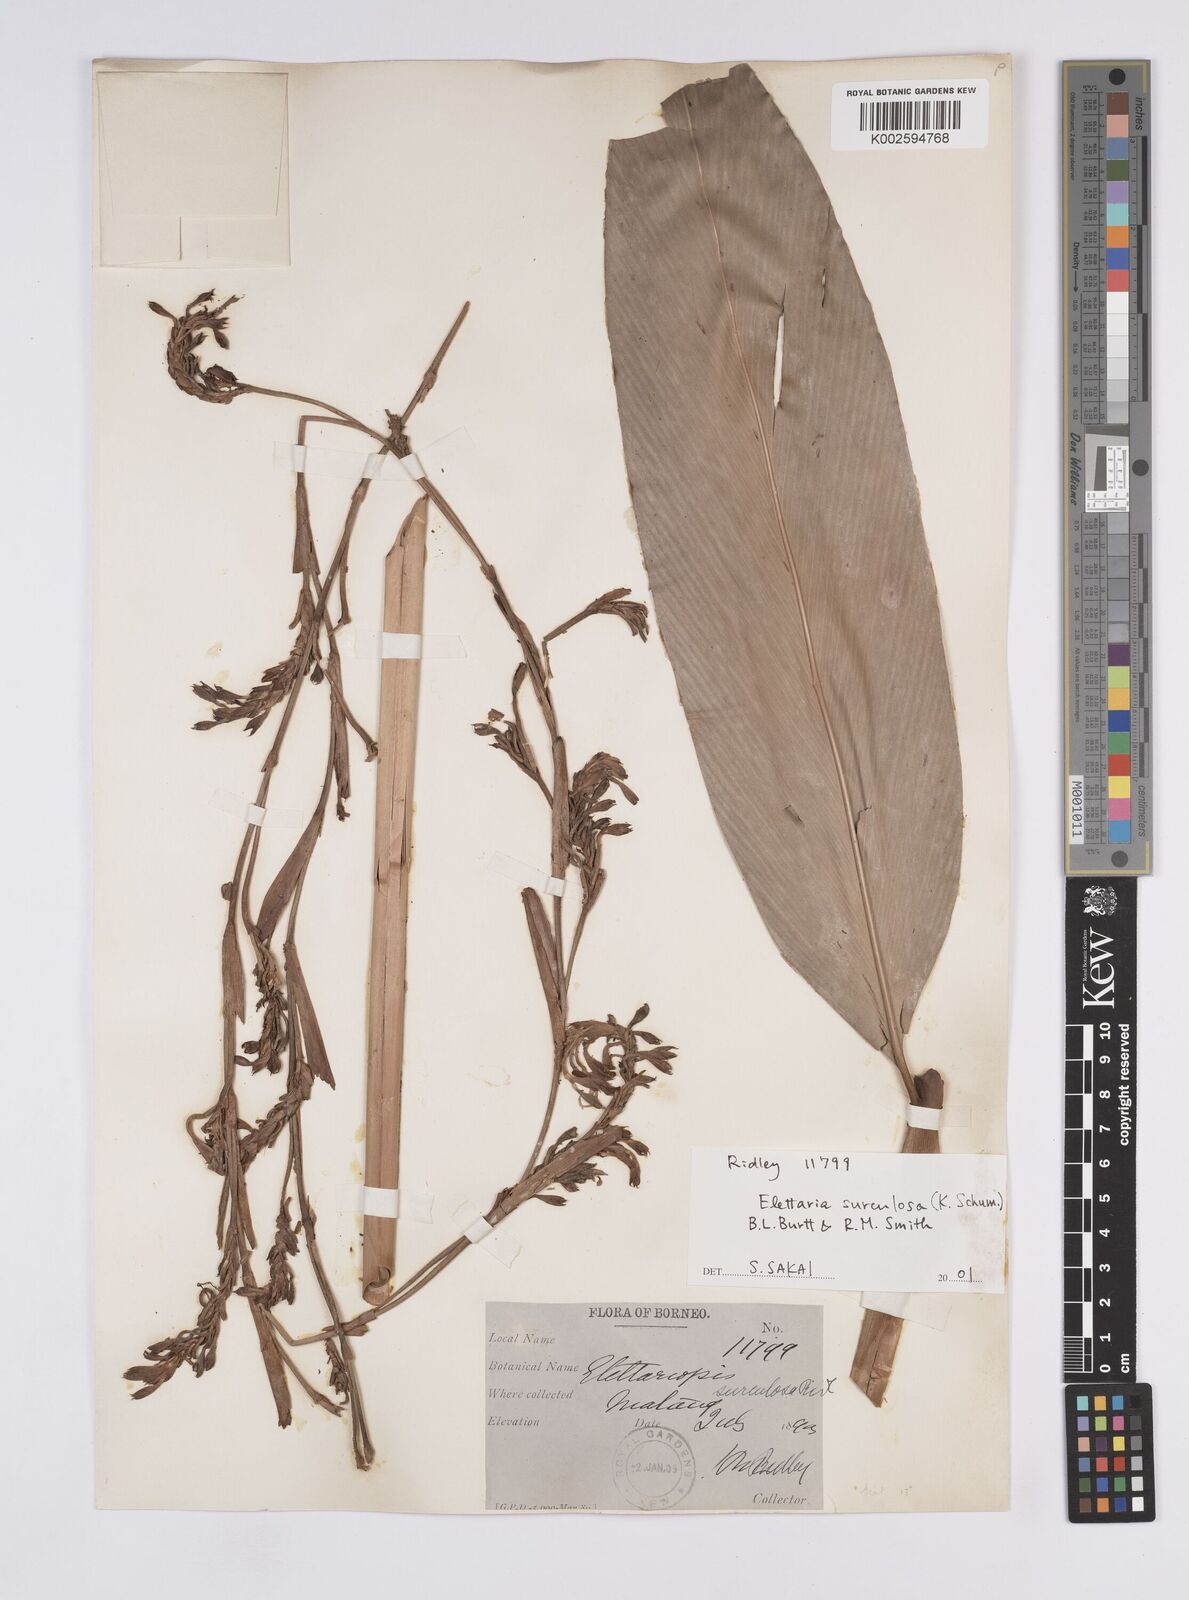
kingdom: Plantae
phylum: Tracheophyta
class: Liliopsida
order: Zingiberales
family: Zingiberaceae
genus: Sulettaria
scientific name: Sulettaria multiflora
